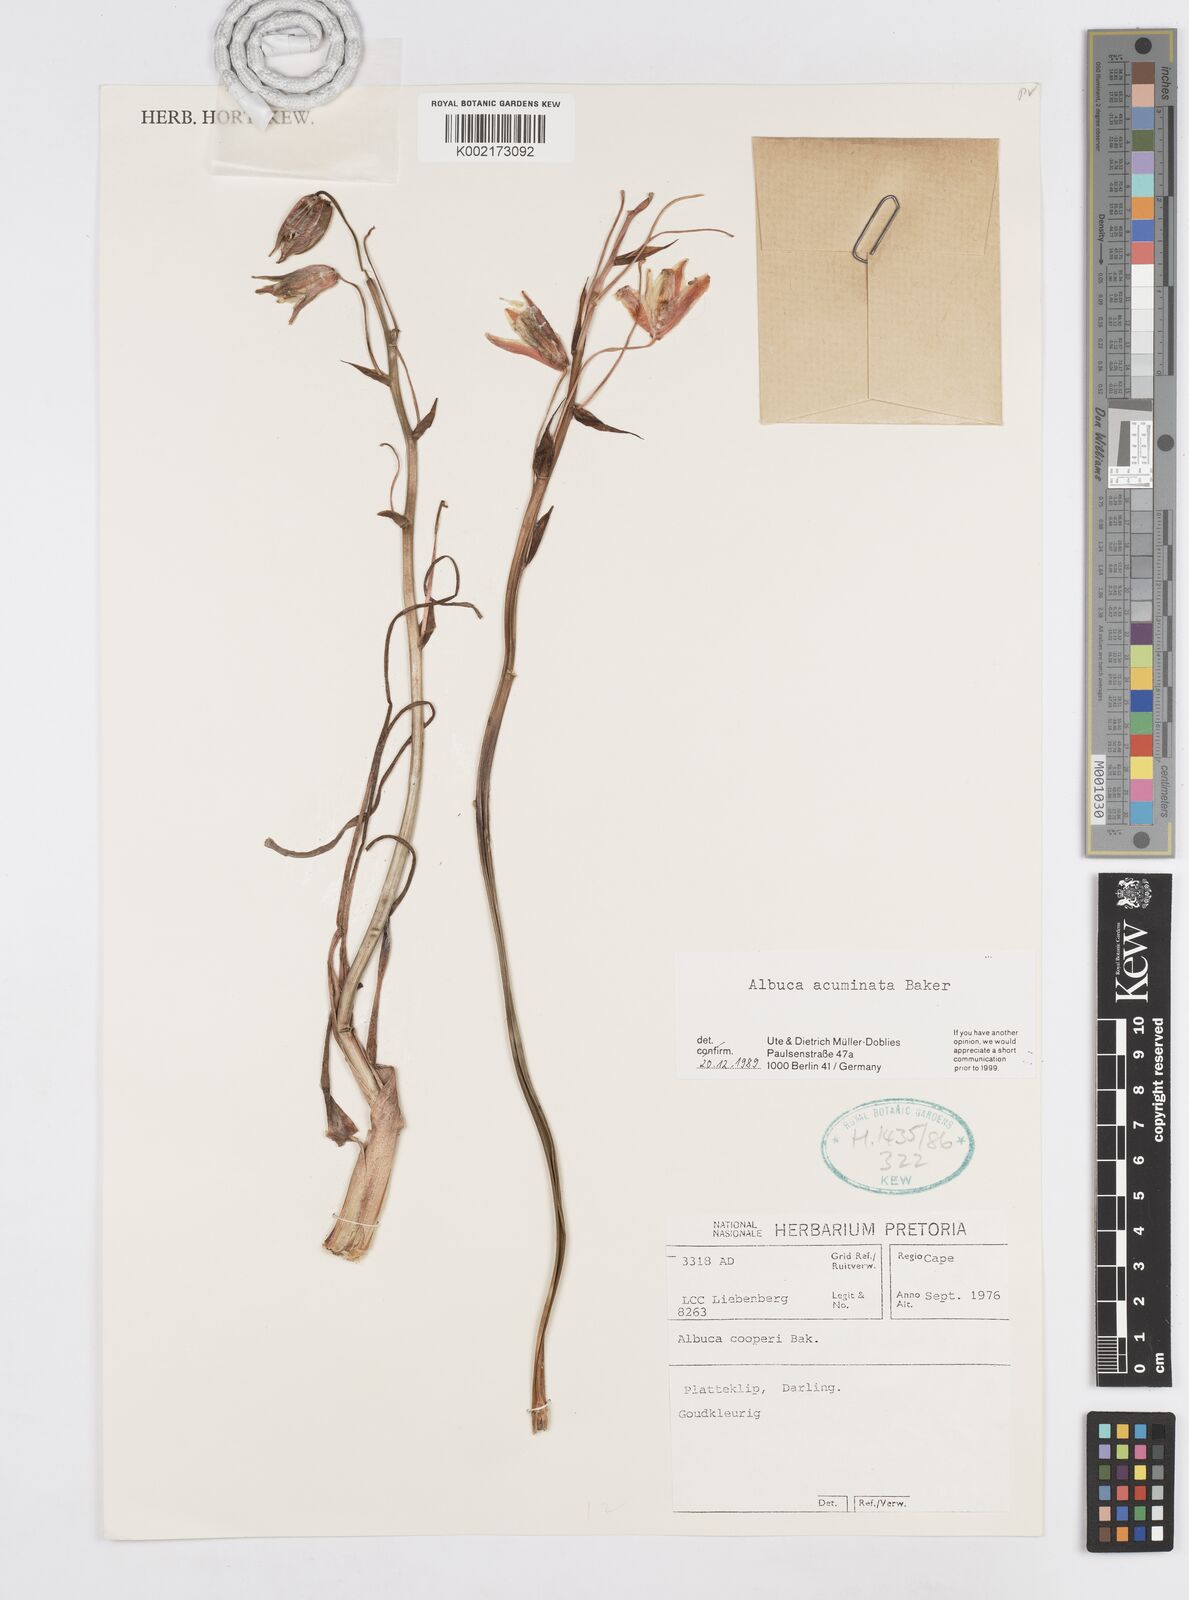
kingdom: Plantae
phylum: Tracheophyta
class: Liliopsida
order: Asparagales
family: Asparagaceae
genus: Albuca
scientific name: Albuca acuminata
